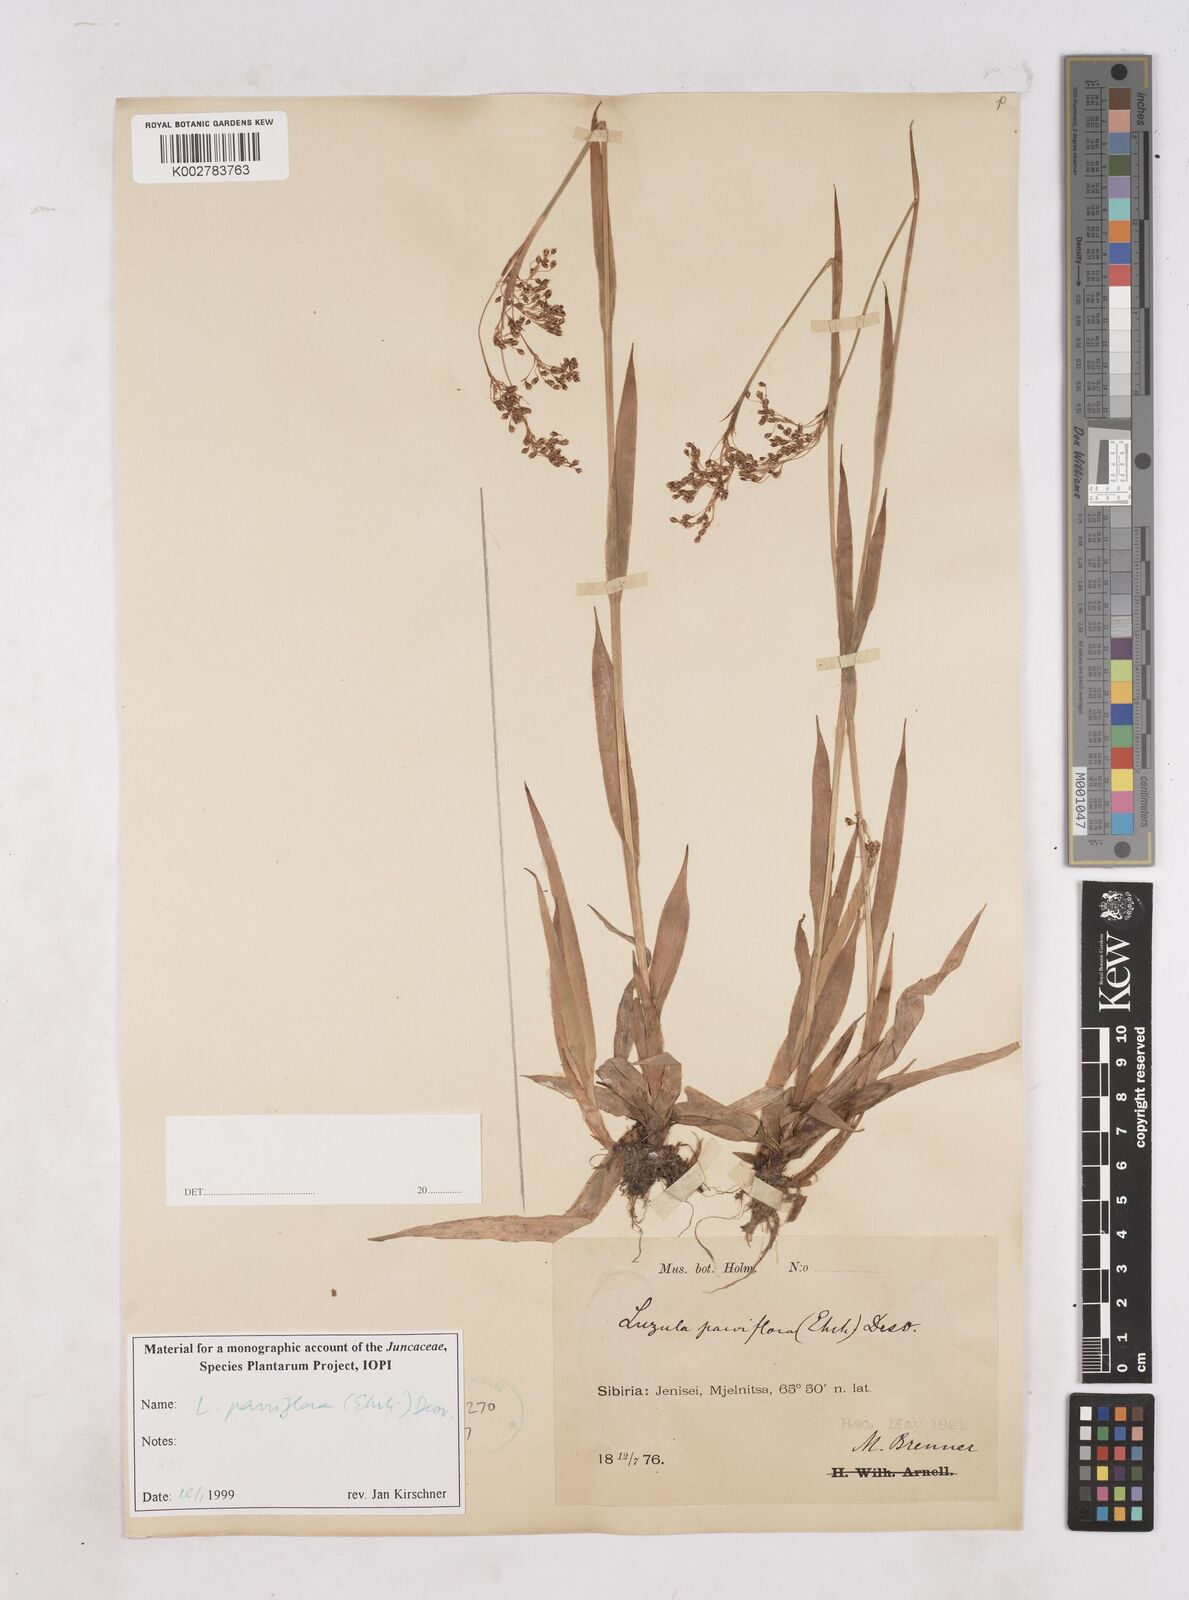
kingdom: Plantae
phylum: Tracheophyta
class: Liliopsida
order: Poales
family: Juncaceae
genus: Luzula
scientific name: Luzula parviflora
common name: Millet woodrush
